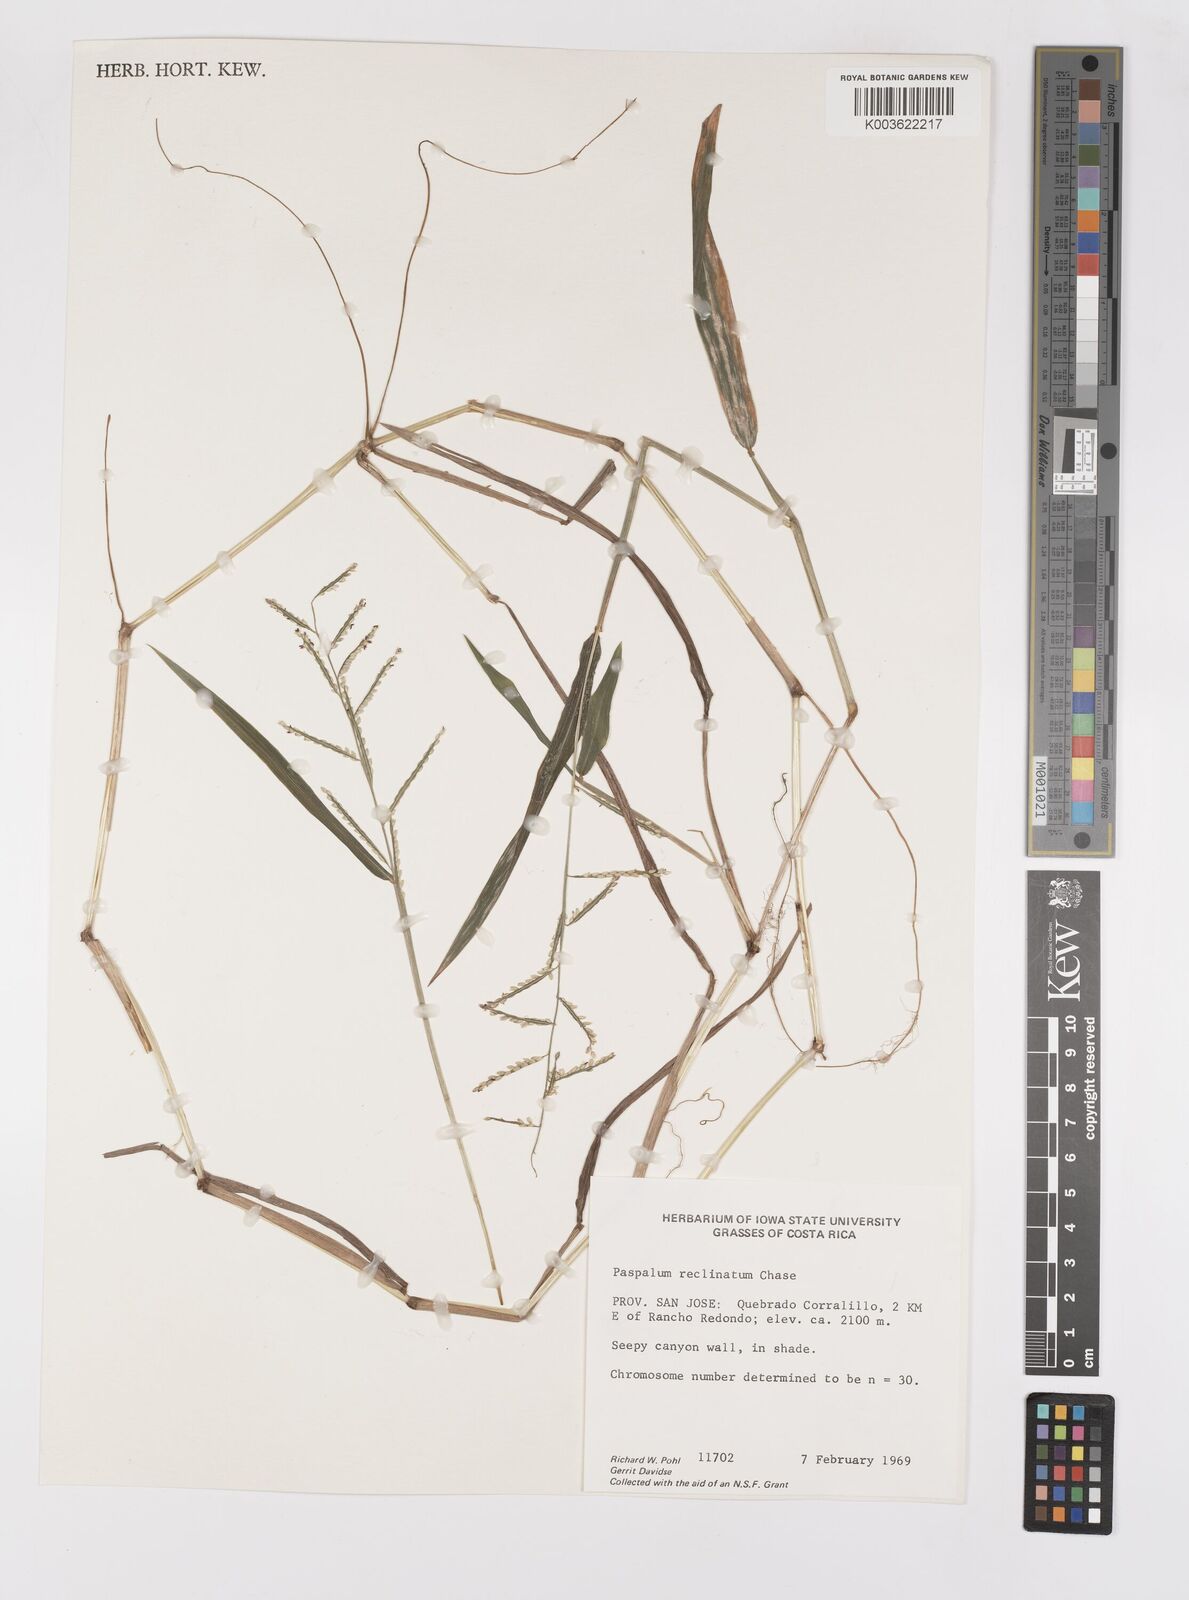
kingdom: Plantae
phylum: Tracheophyta
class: Liliopsida
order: Poales
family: Poaceae
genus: Paspalum
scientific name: Paspalum reclinatum
